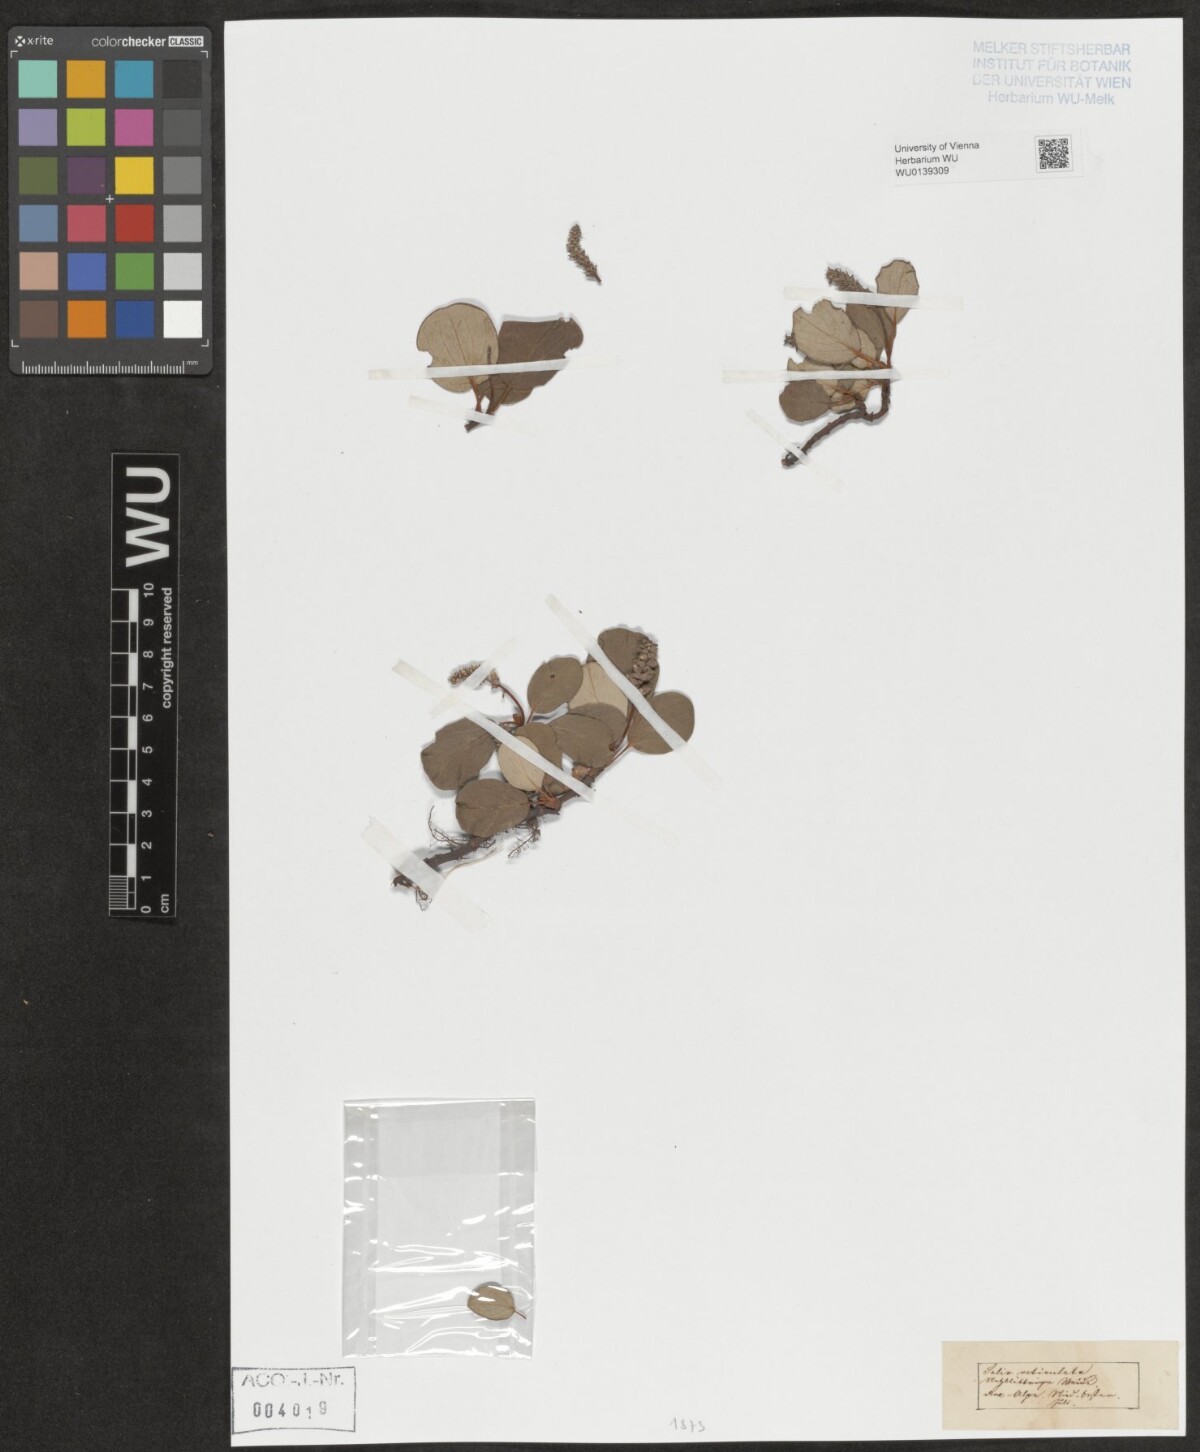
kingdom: Plantae
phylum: Tracheophyta
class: Magnoliopsida
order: Malpighiales
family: Salicaceae
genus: Salix
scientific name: Salix reticulata
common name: Net-leaved willow
